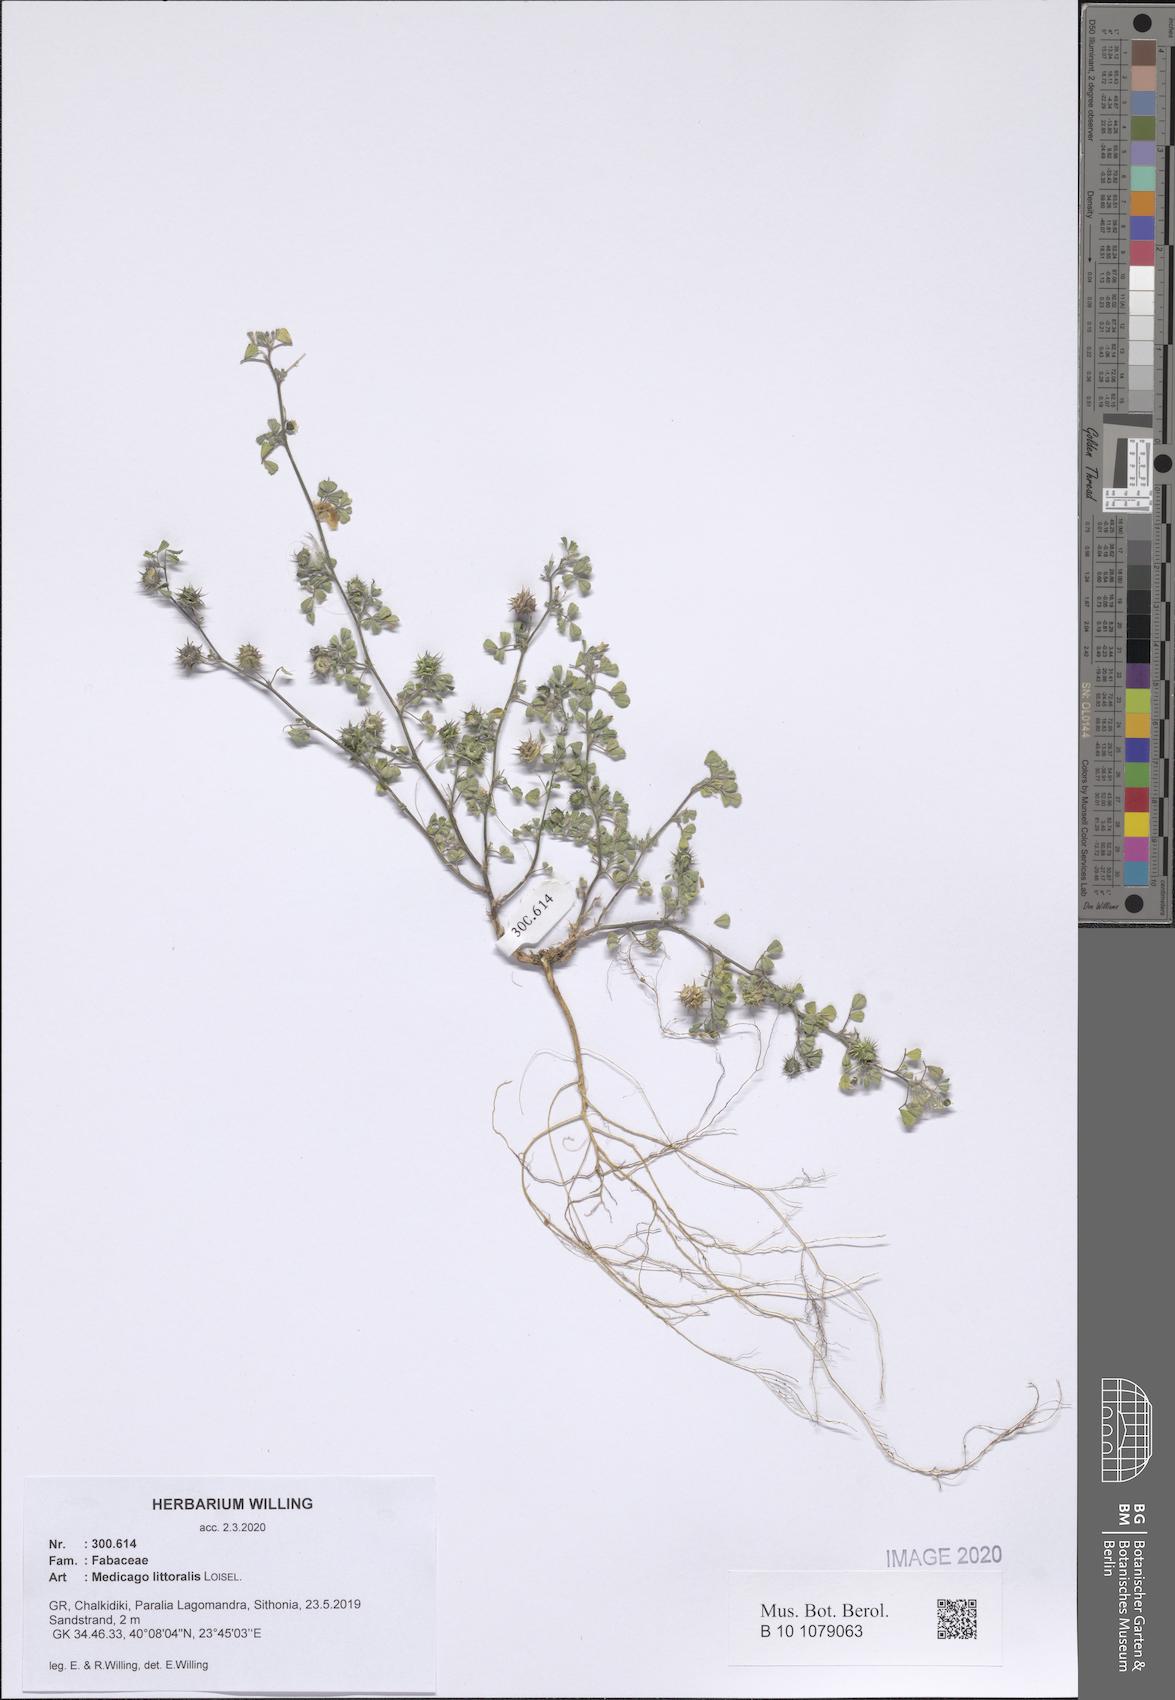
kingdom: Plantae
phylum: Tracheophyta
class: Magnoliopsida
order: Fabales
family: Fabaceae
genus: Medicago
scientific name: Medicago littoralis
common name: Shore medick
